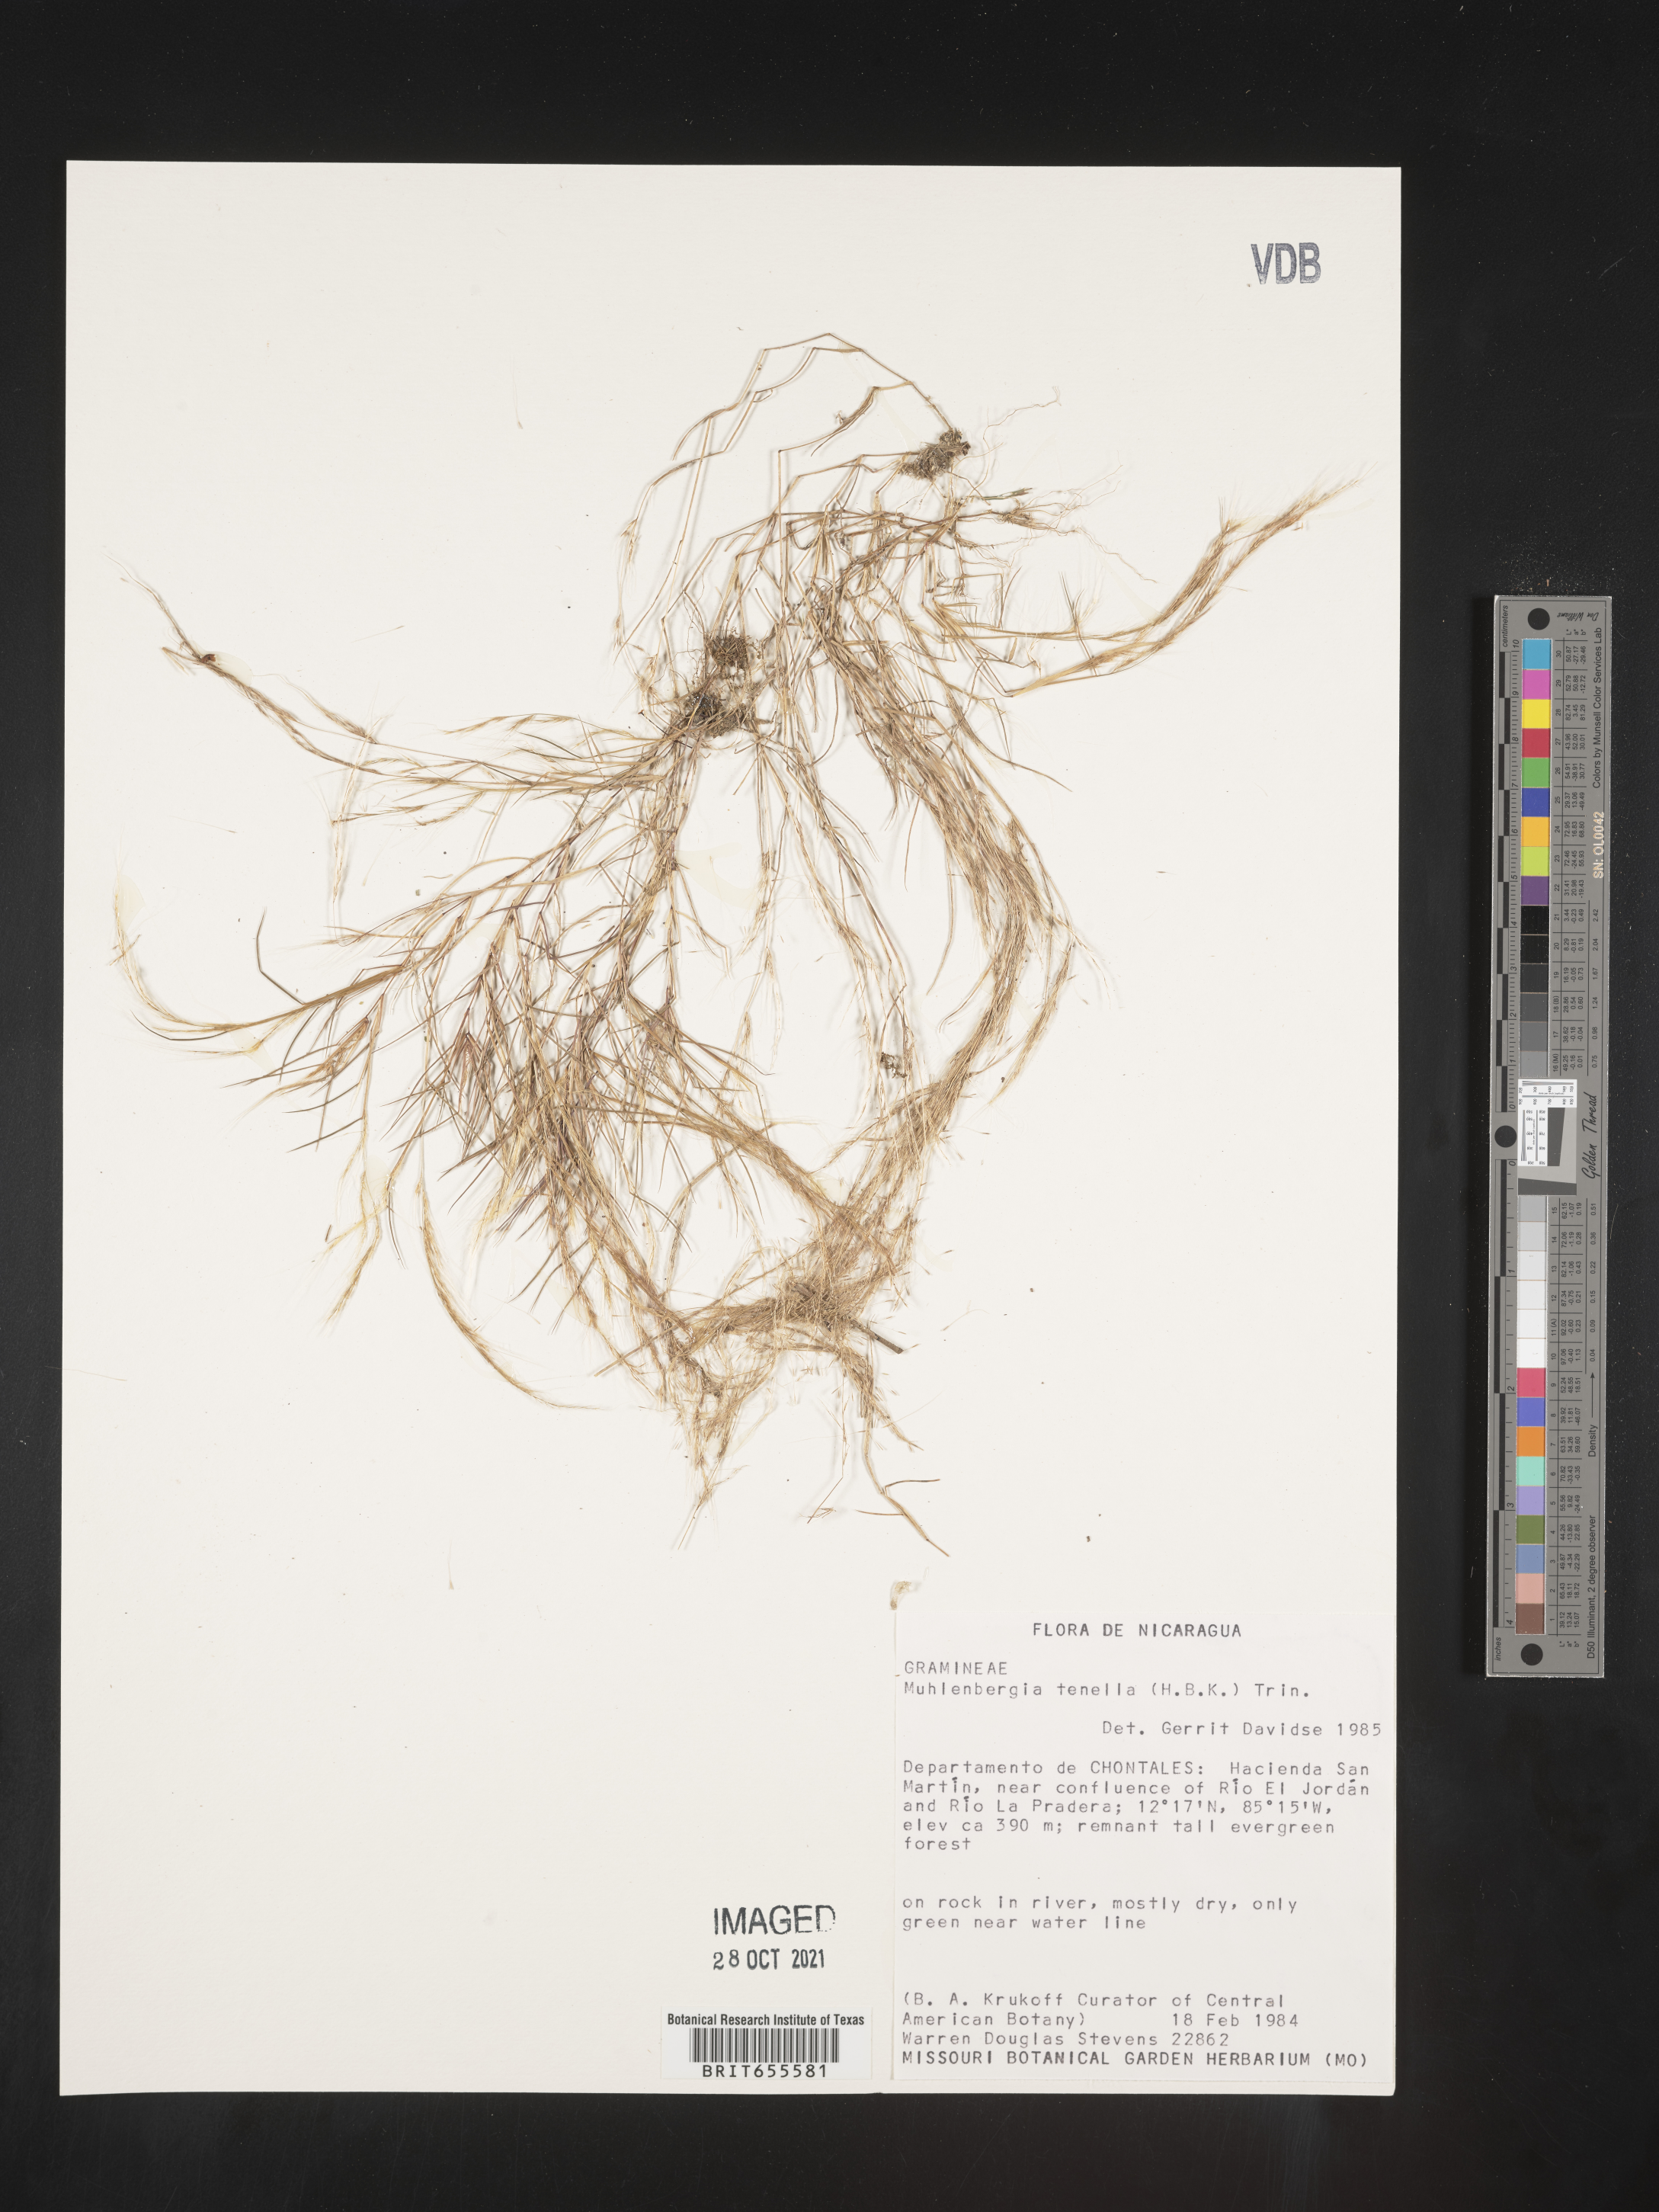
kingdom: Plantae
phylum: Tracheophyta
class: Liliopsida
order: Poales
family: Poaceae
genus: Muhlenbergia
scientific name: Muhlenbergia
